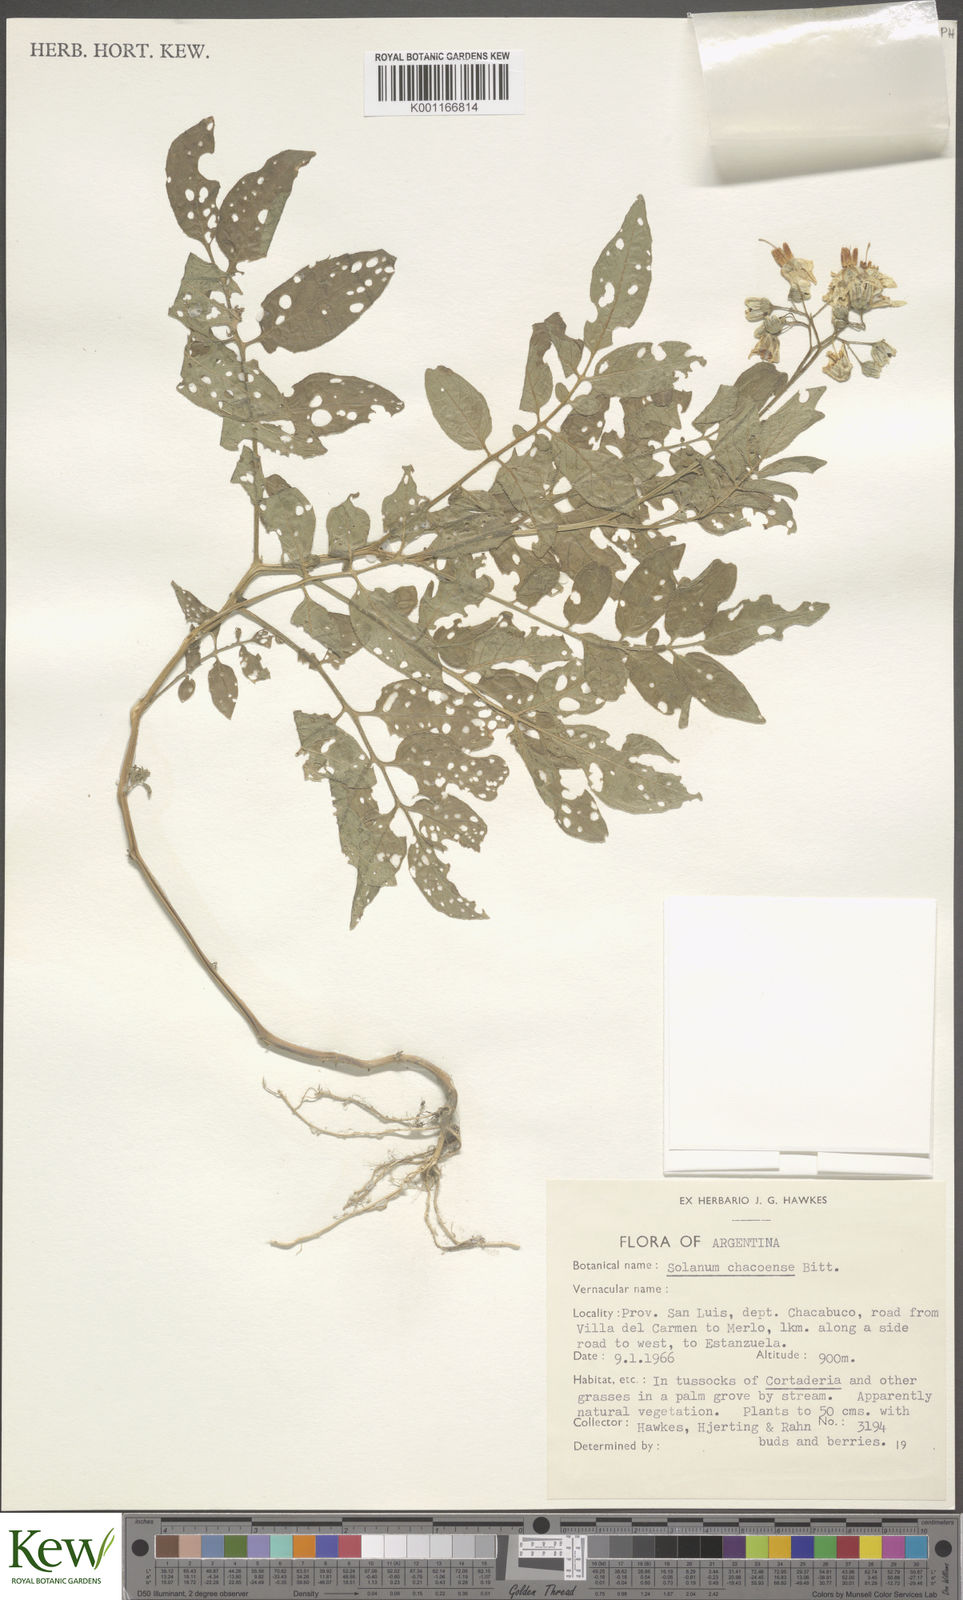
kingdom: Plantae
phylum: Tracheophyta
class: Magnoliopsida
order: Solanales
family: Solanaceae
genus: Solanum
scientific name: Solanum chacoense
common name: Chaco potato
